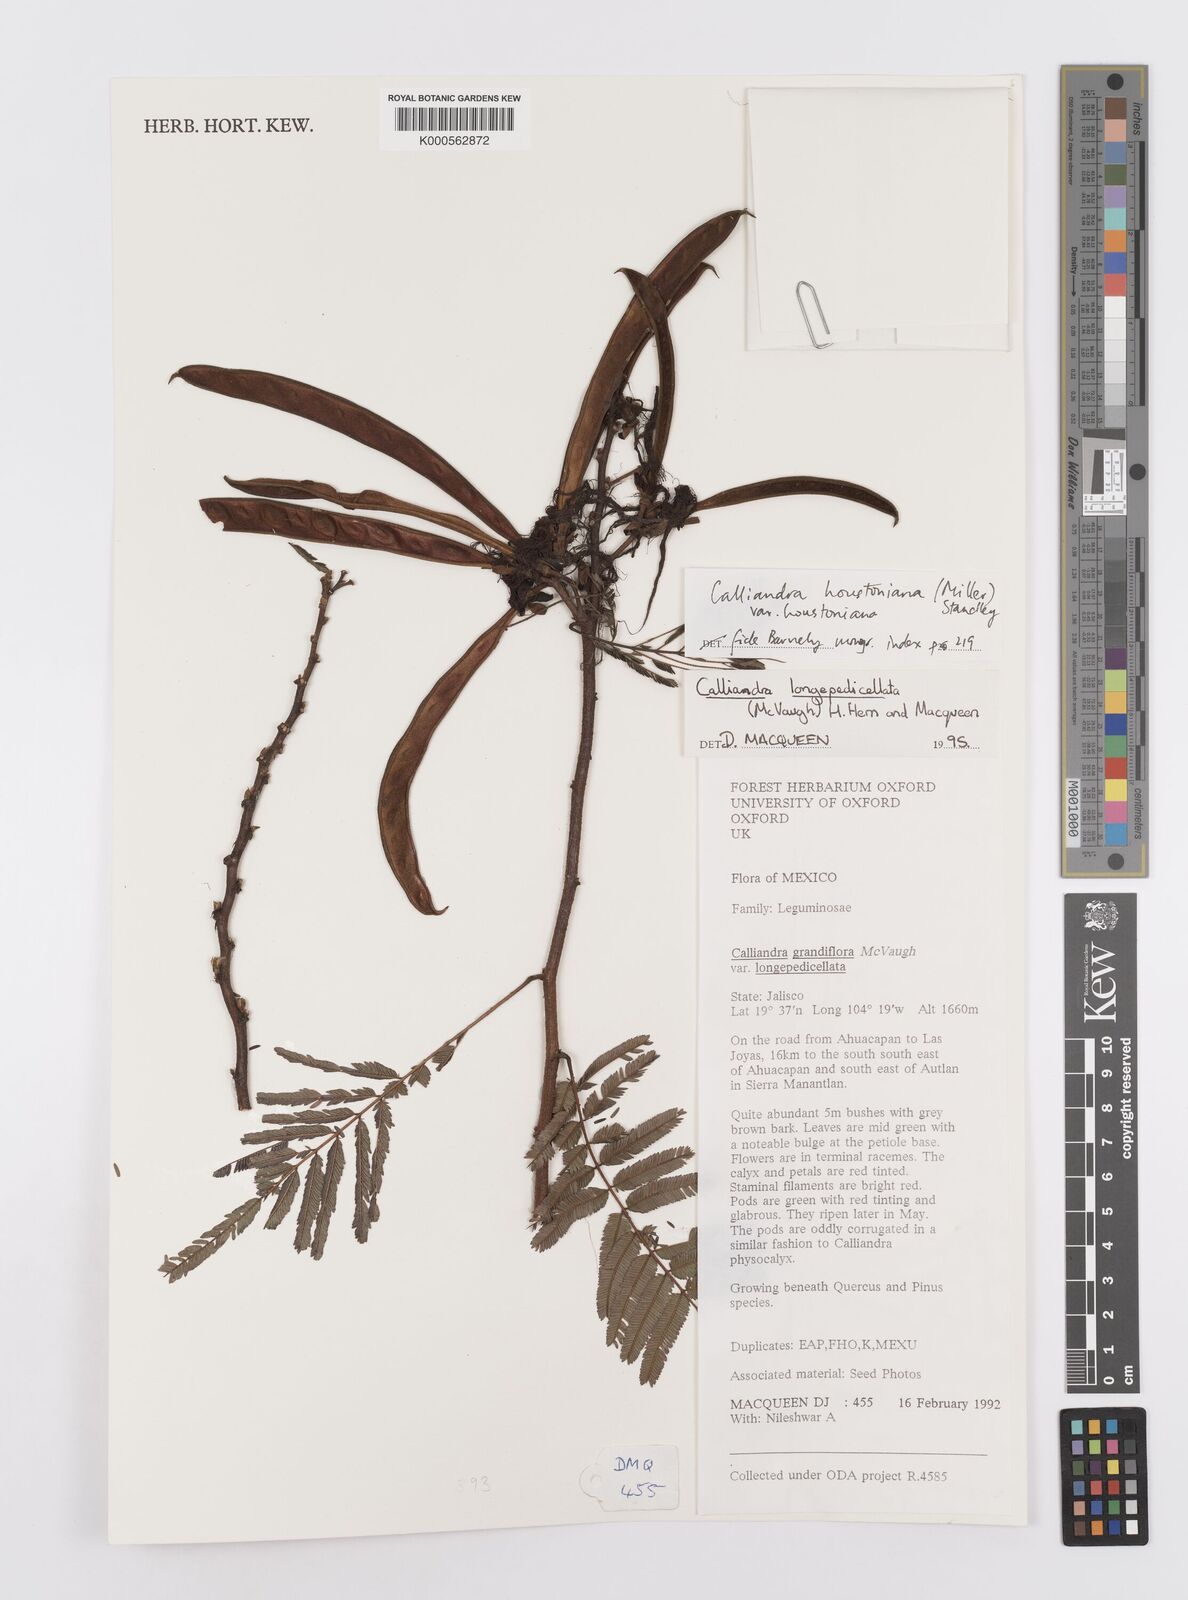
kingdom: Plantae
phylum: Tracheophyta
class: Magnoliopsida
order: Fabales
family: Fabaceae
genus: Calliandra
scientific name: Calliandra houstoniana
